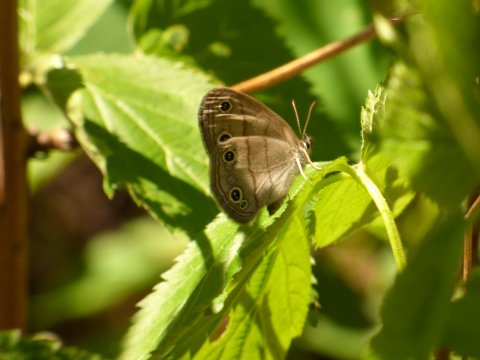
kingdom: Animalia
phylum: Arthropoda
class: Insecta
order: Lepidoptera
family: Nymphalidae
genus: Euptychia
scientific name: Euptychia cymela
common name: Little Wood Satyr
